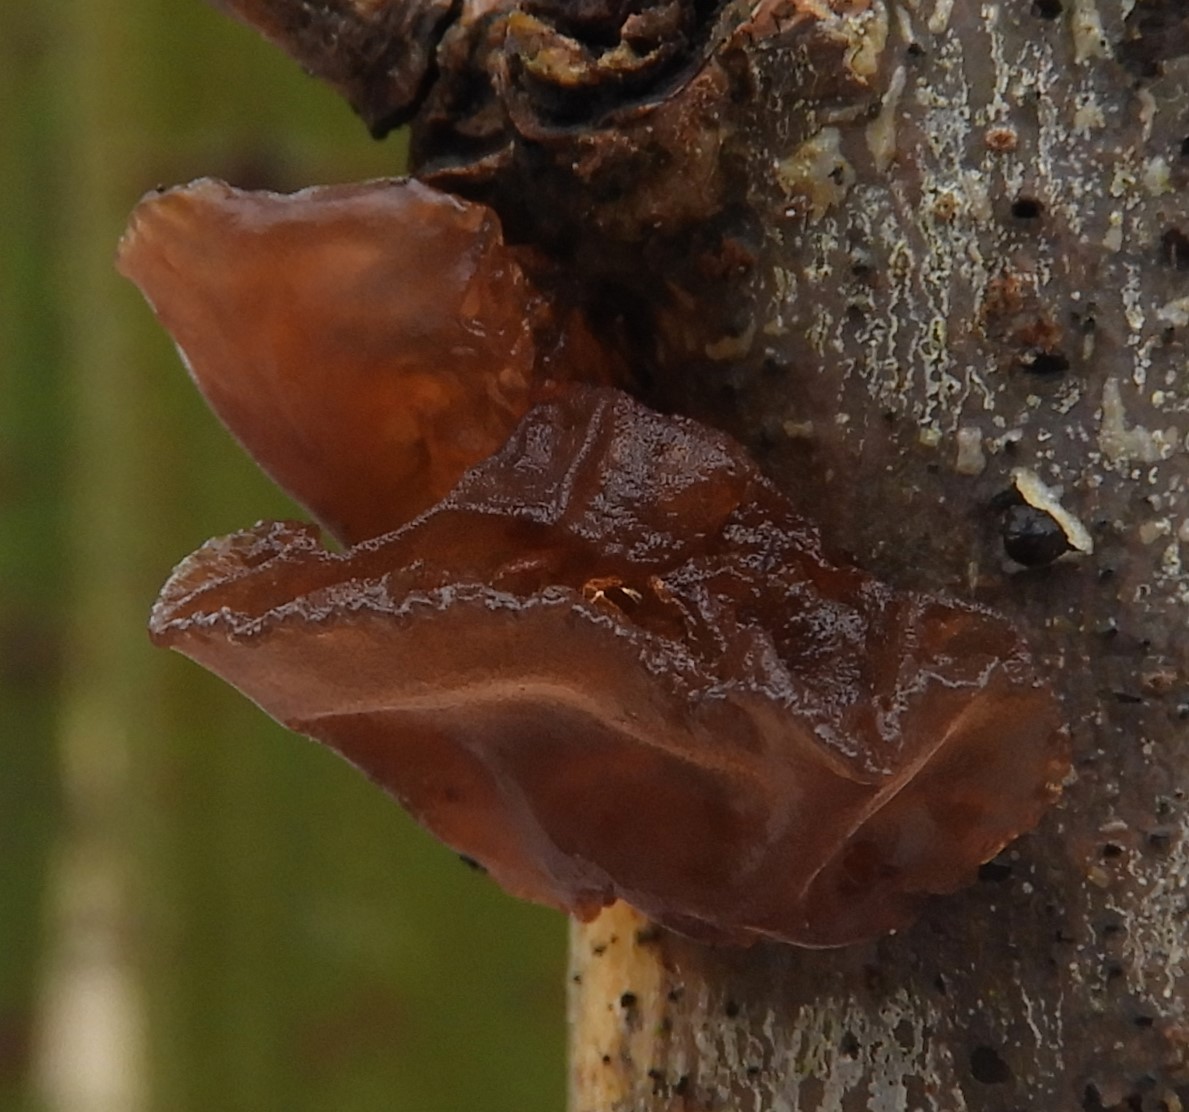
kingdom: Fungi
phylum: Basidiomycota
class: Agaricomycetes
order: Auriculariales
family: Auriculariaceae
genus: Exidia
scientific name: Exidia recisa
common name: pile-bævretop
